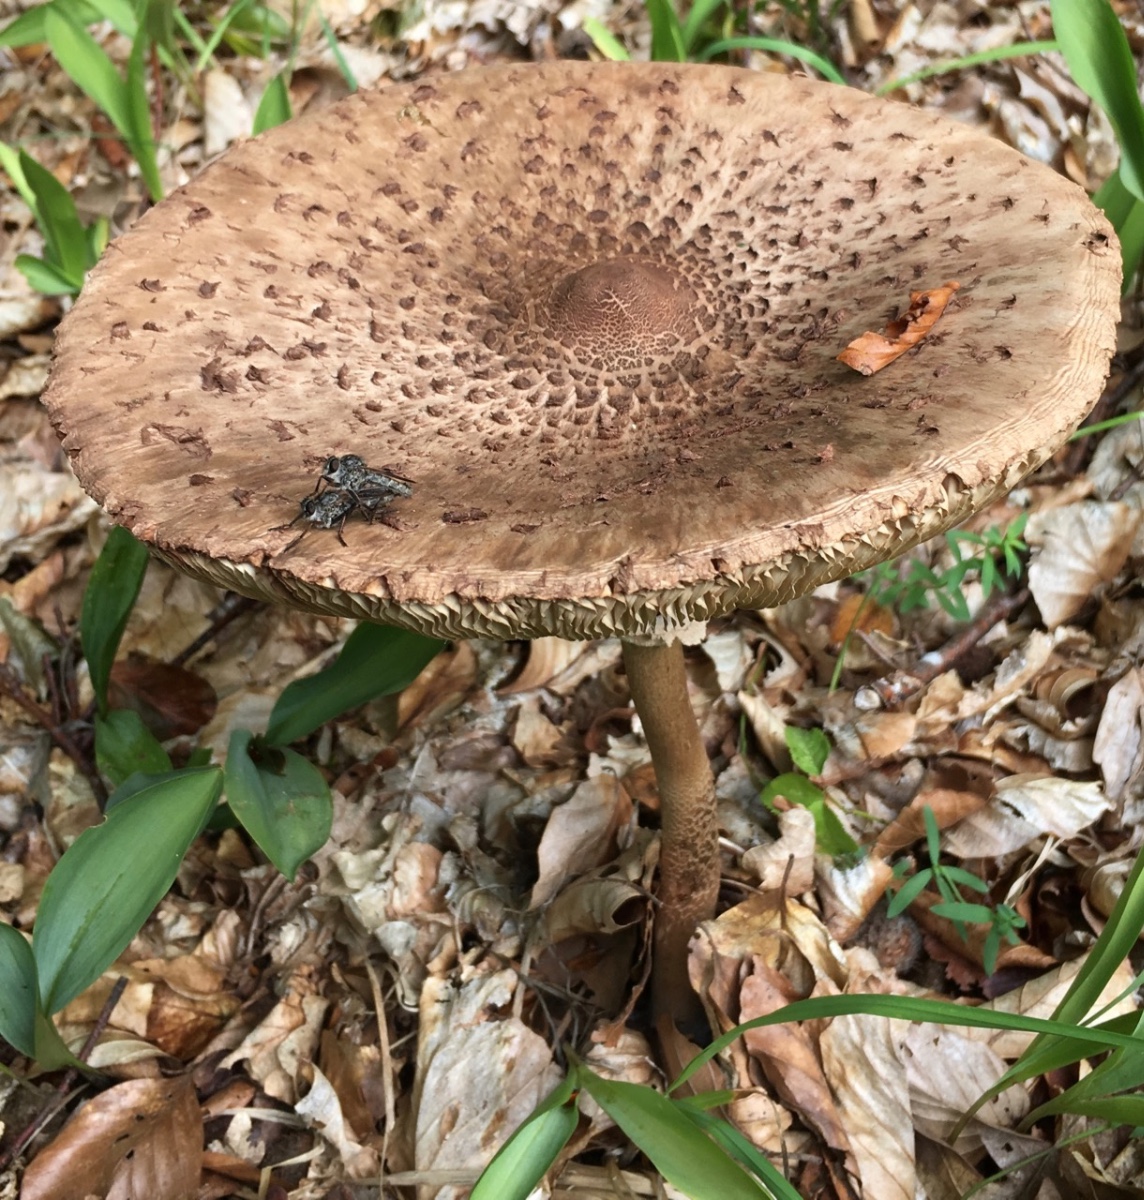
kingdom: Fungi
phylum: Basidiomycota
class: Agaricomycetes
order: Agaricales
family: Agaricaceae
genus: Macrolepiota
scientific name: Macrolepiota
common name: kæmpeparasolhat
